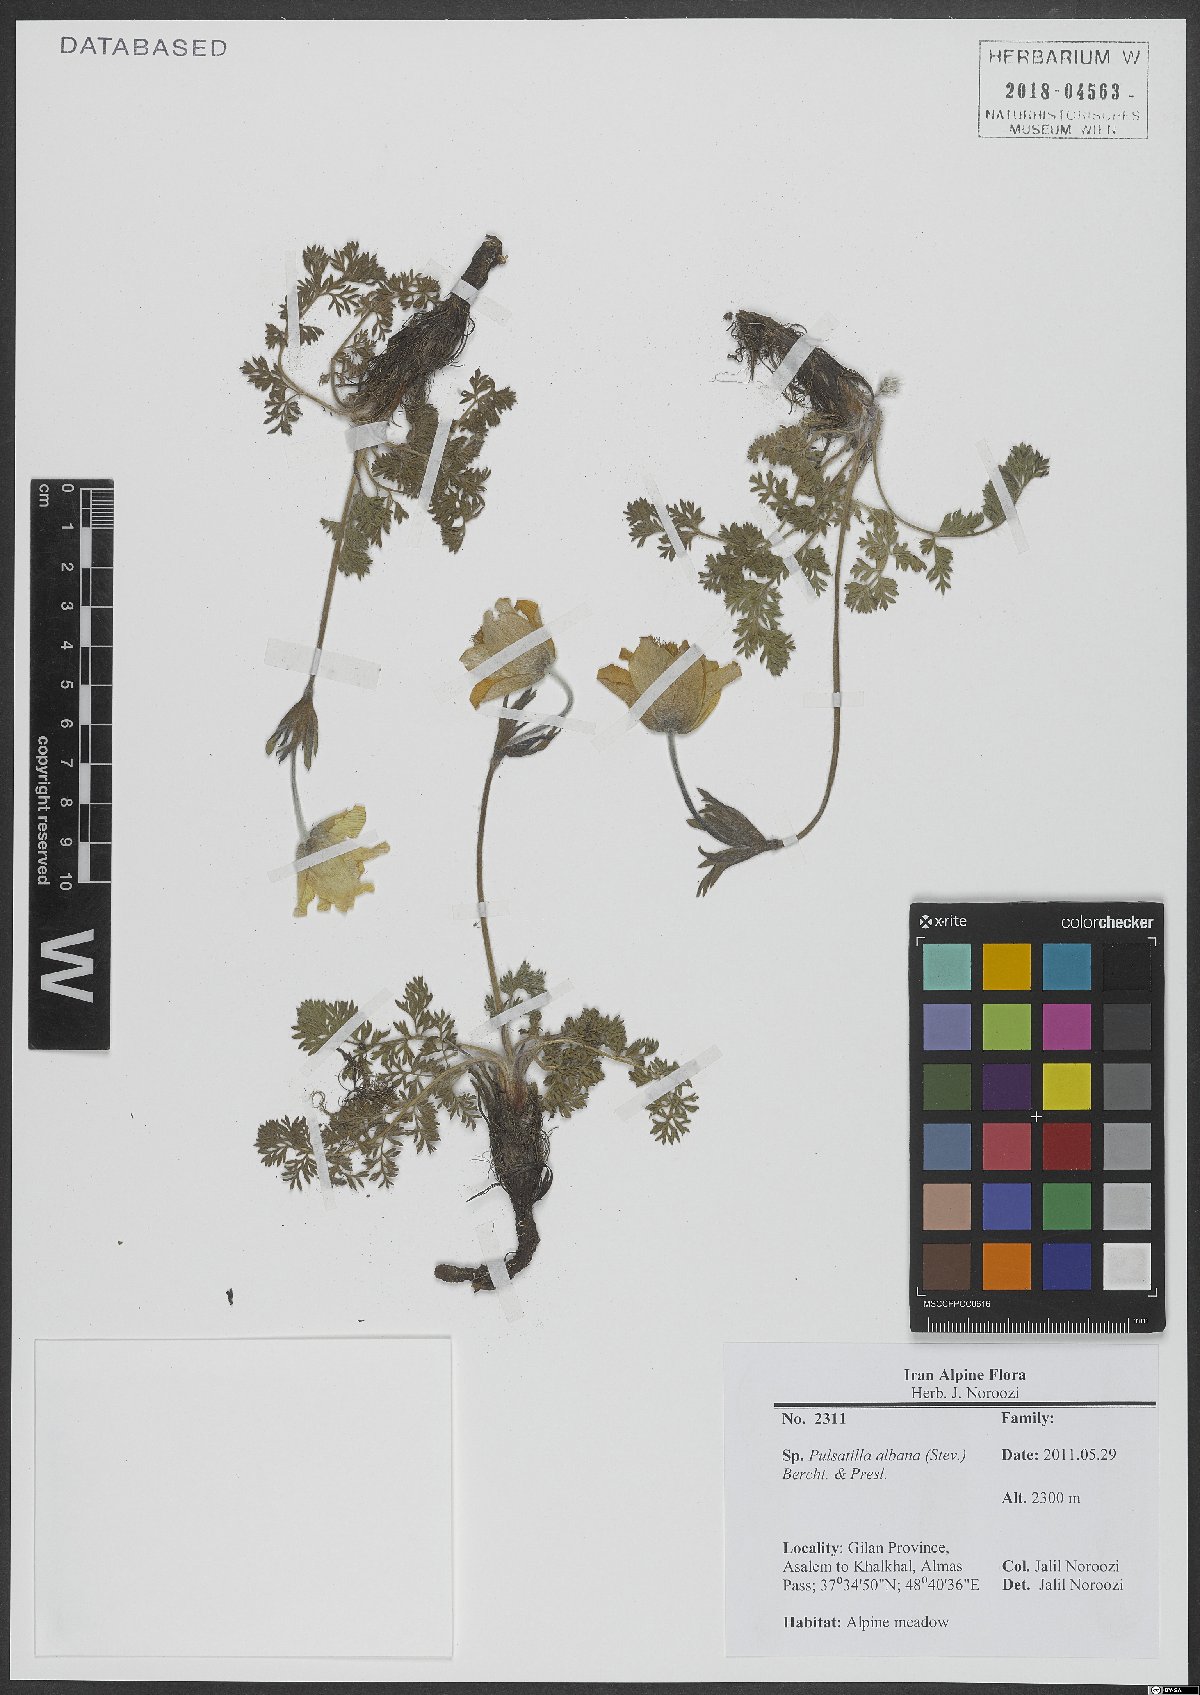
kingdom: Plantae
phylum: Tracheophyta
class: Magnoliopsida
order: Ranunculales
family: Ranunculaceae
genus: Pulsatilla
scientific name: Pulsatilla albana
